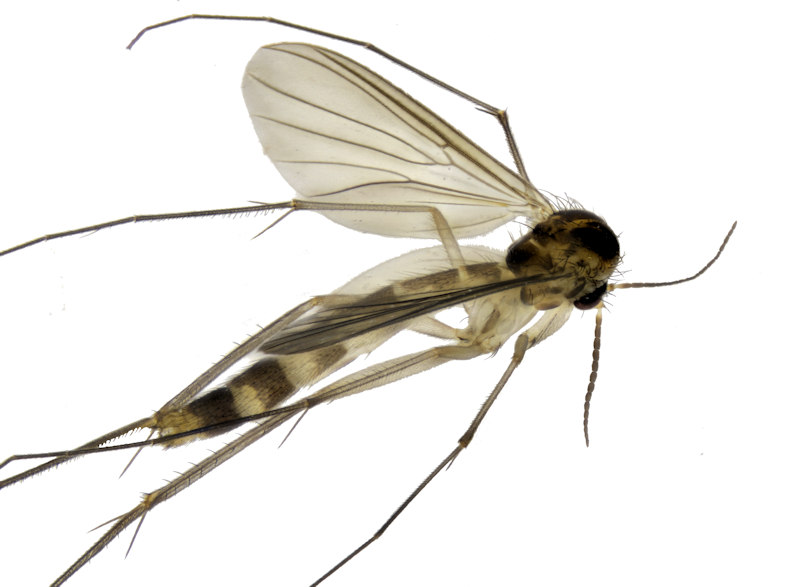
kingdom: Animalia
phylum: Arthropoda
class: Insecta
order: Diptera
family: Mycetophilidae
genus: Exechia
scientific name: Exechia intersecta
